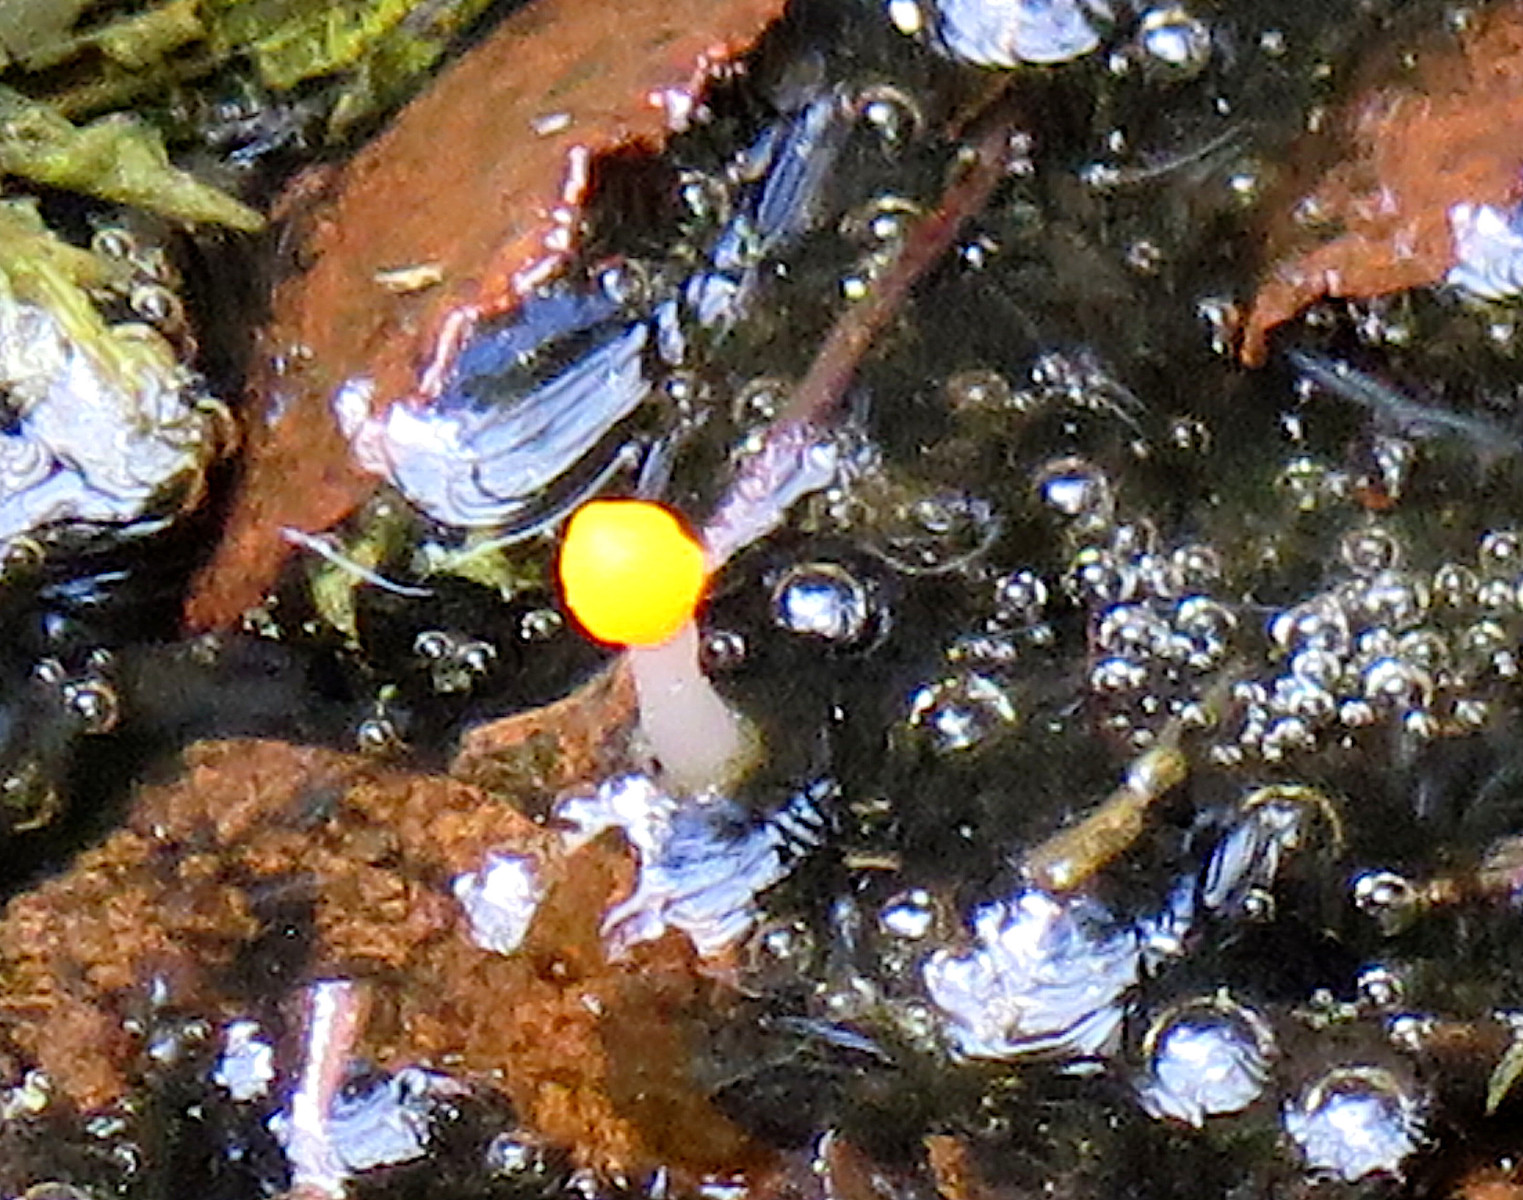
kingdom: Fungi
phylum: Ascomycota
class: Leotiomycetes
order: Helotiales
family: Cenangiaceae
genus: Mitrula
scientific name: Mitrula paludosa
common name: gul nøkketunge
